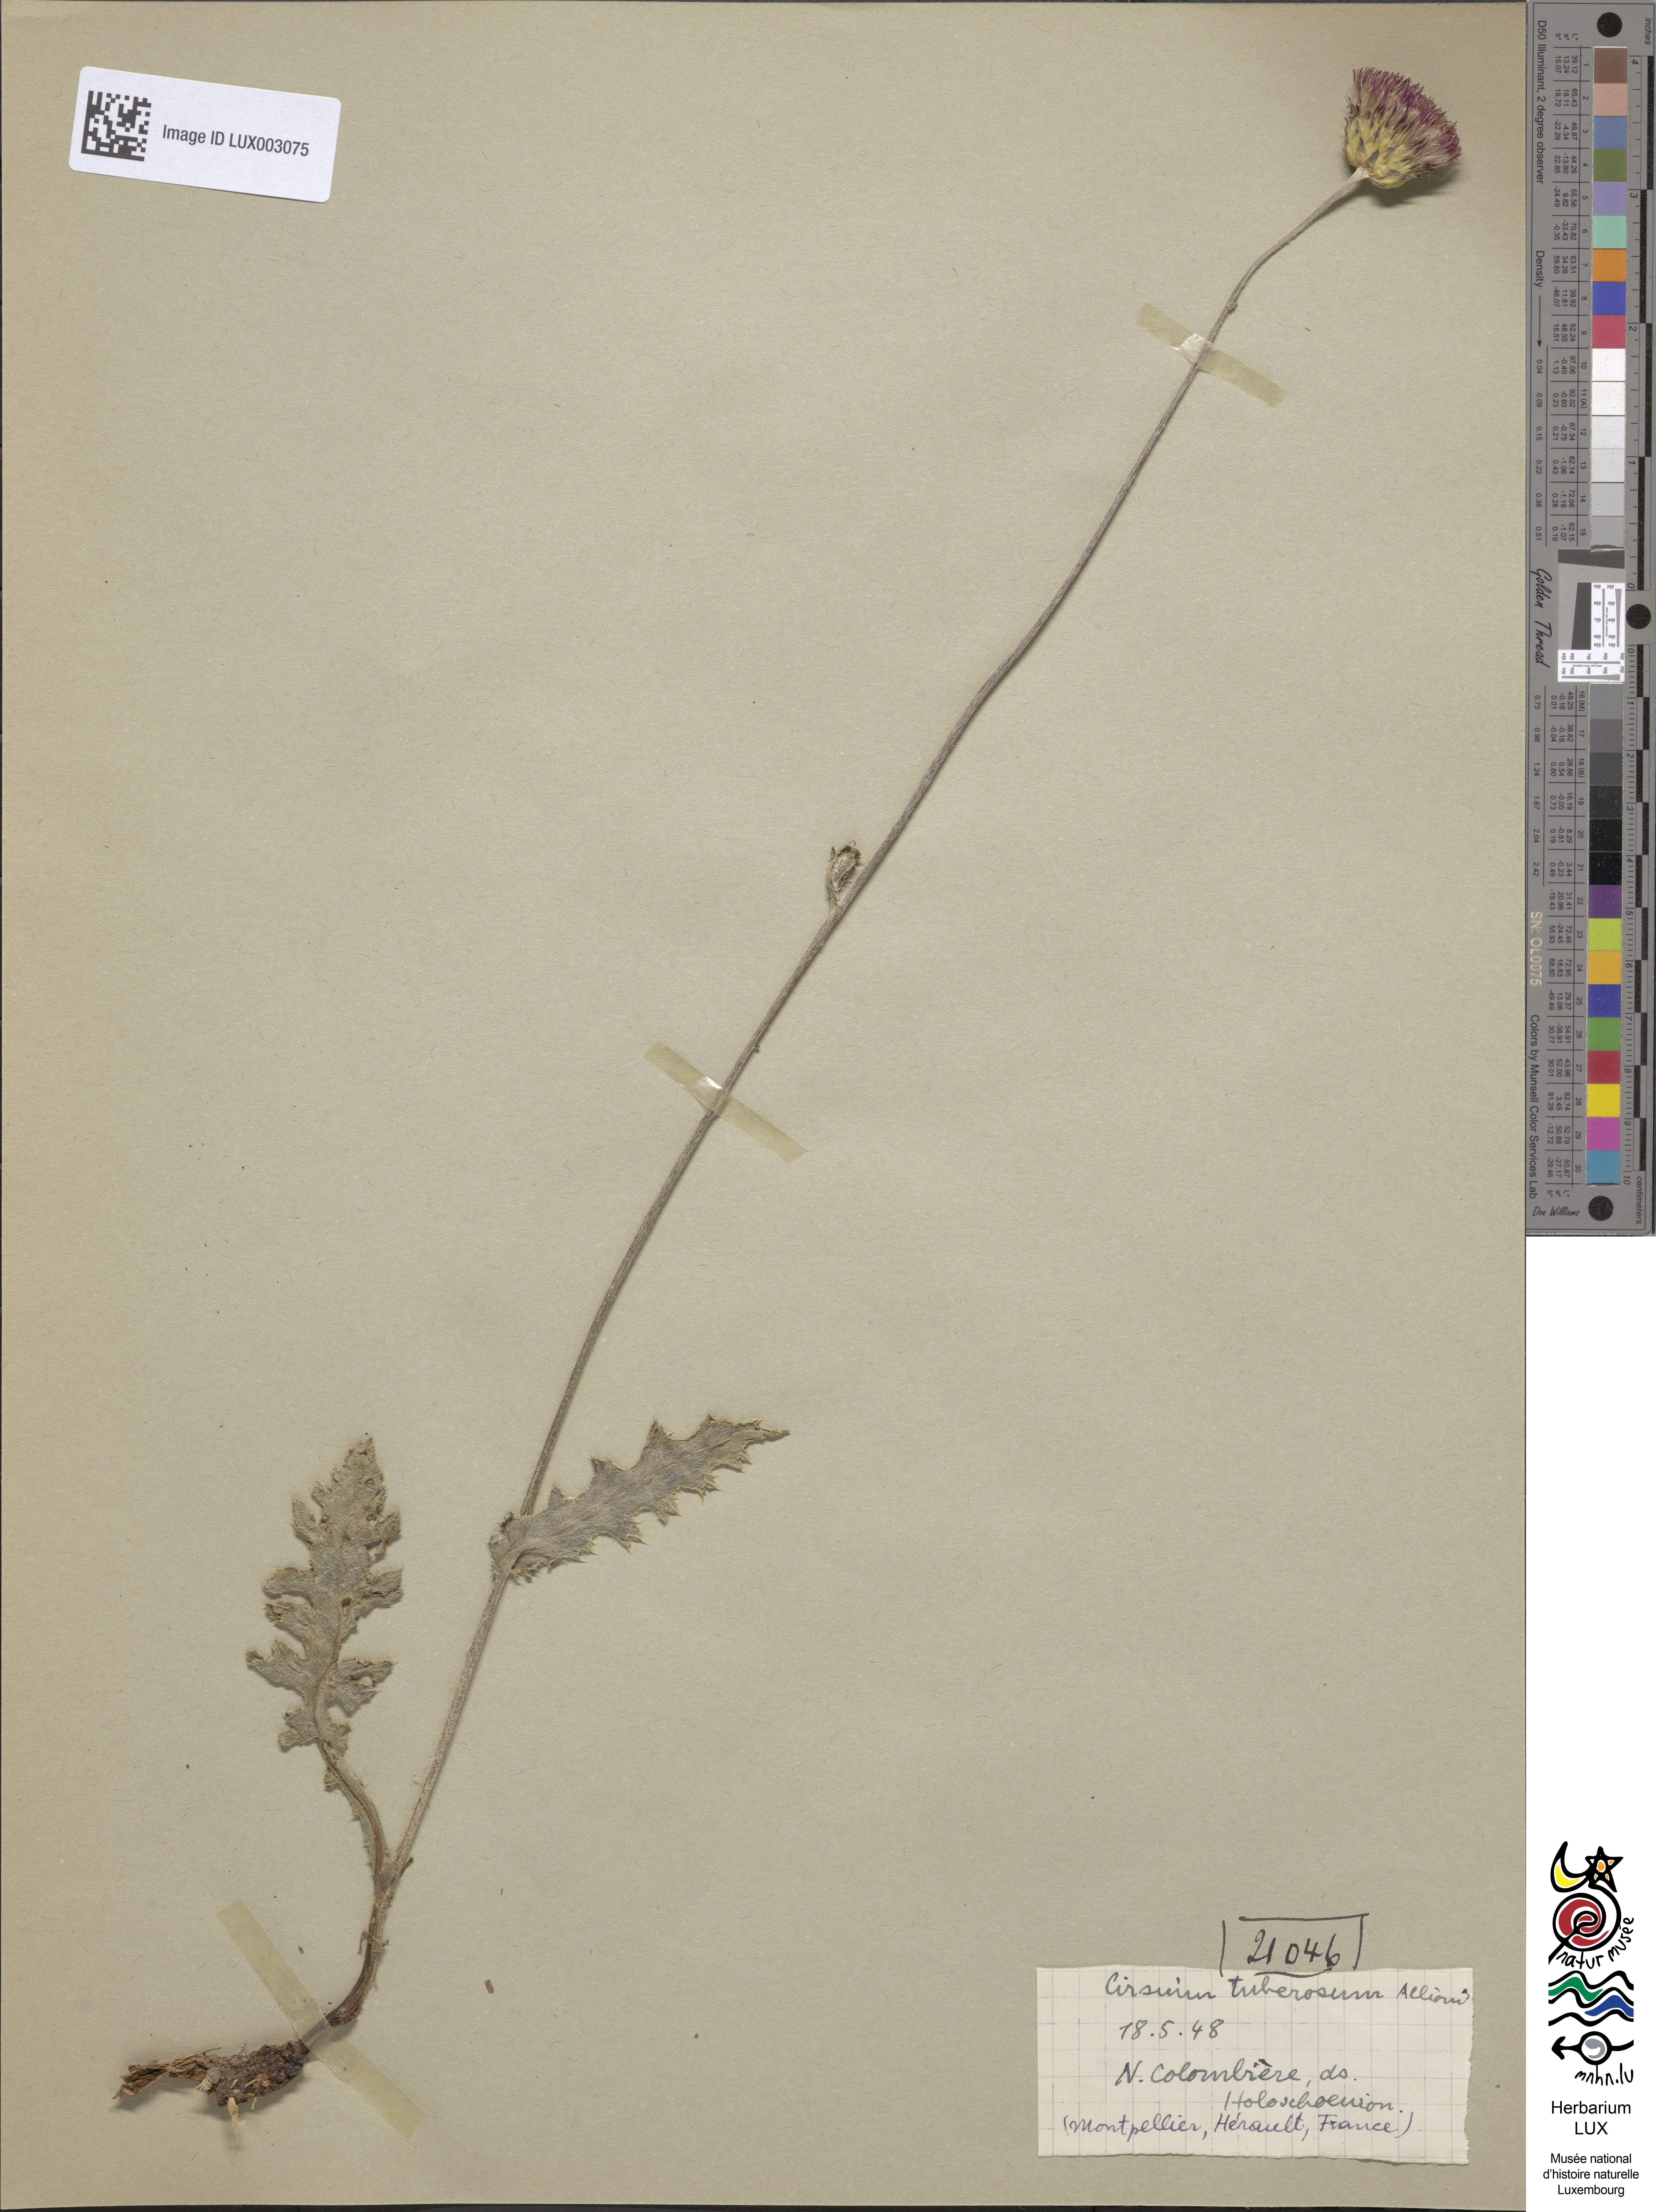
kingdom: Plantae
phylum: Tracheophyta
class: Magnoliopsida
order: Asterales
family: Asteraceae
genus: Cirsium
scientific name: Cirsium tuberosum
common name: Tuberous thistle
